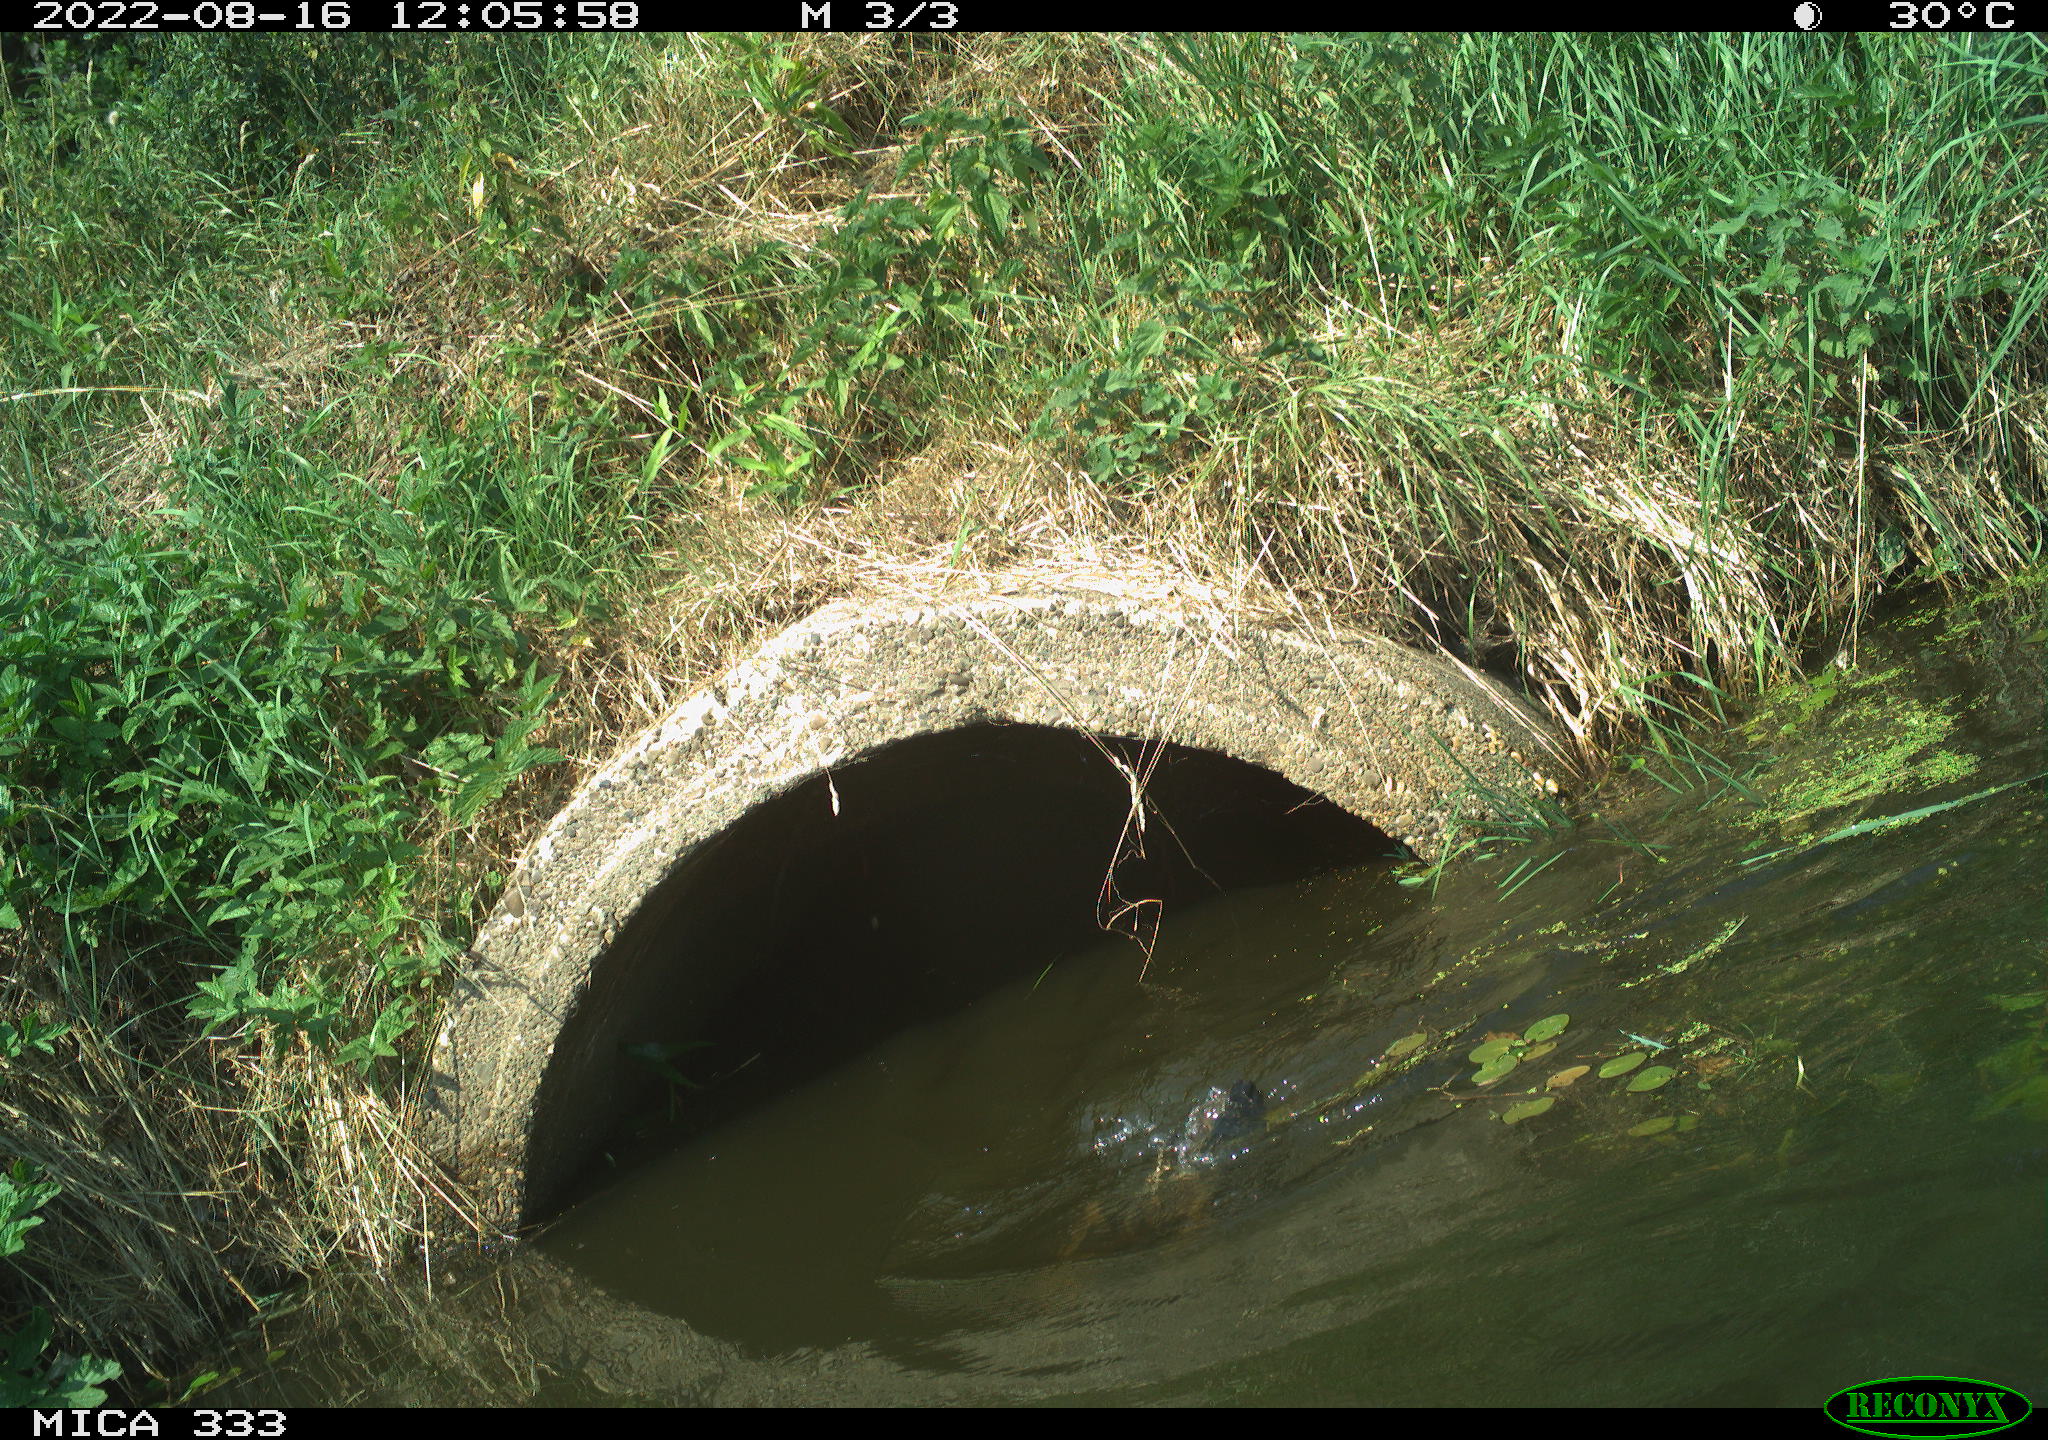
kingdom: Animalia
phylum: Chordata
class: Aves
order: Suliformes
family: Phalacrocoracidae
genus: Phalacrocorax
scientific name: Phalacrocorax carbo
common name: Great cormorant
